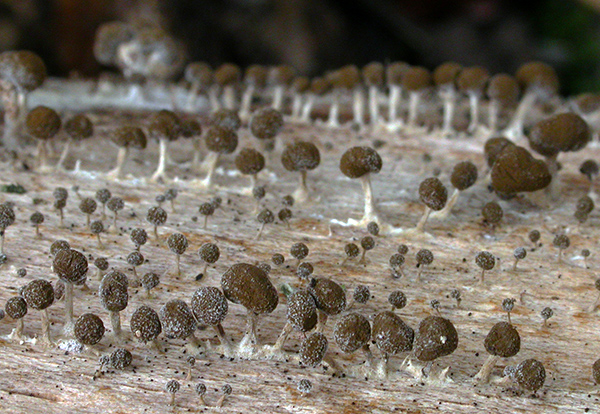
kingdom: Fungi
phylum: Basidiomycota
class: Atractiellomycetes
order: Atractiellales
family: Phleogenaceae
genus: Phleogena
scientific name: Phleogena faginea
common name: pudderkølle
